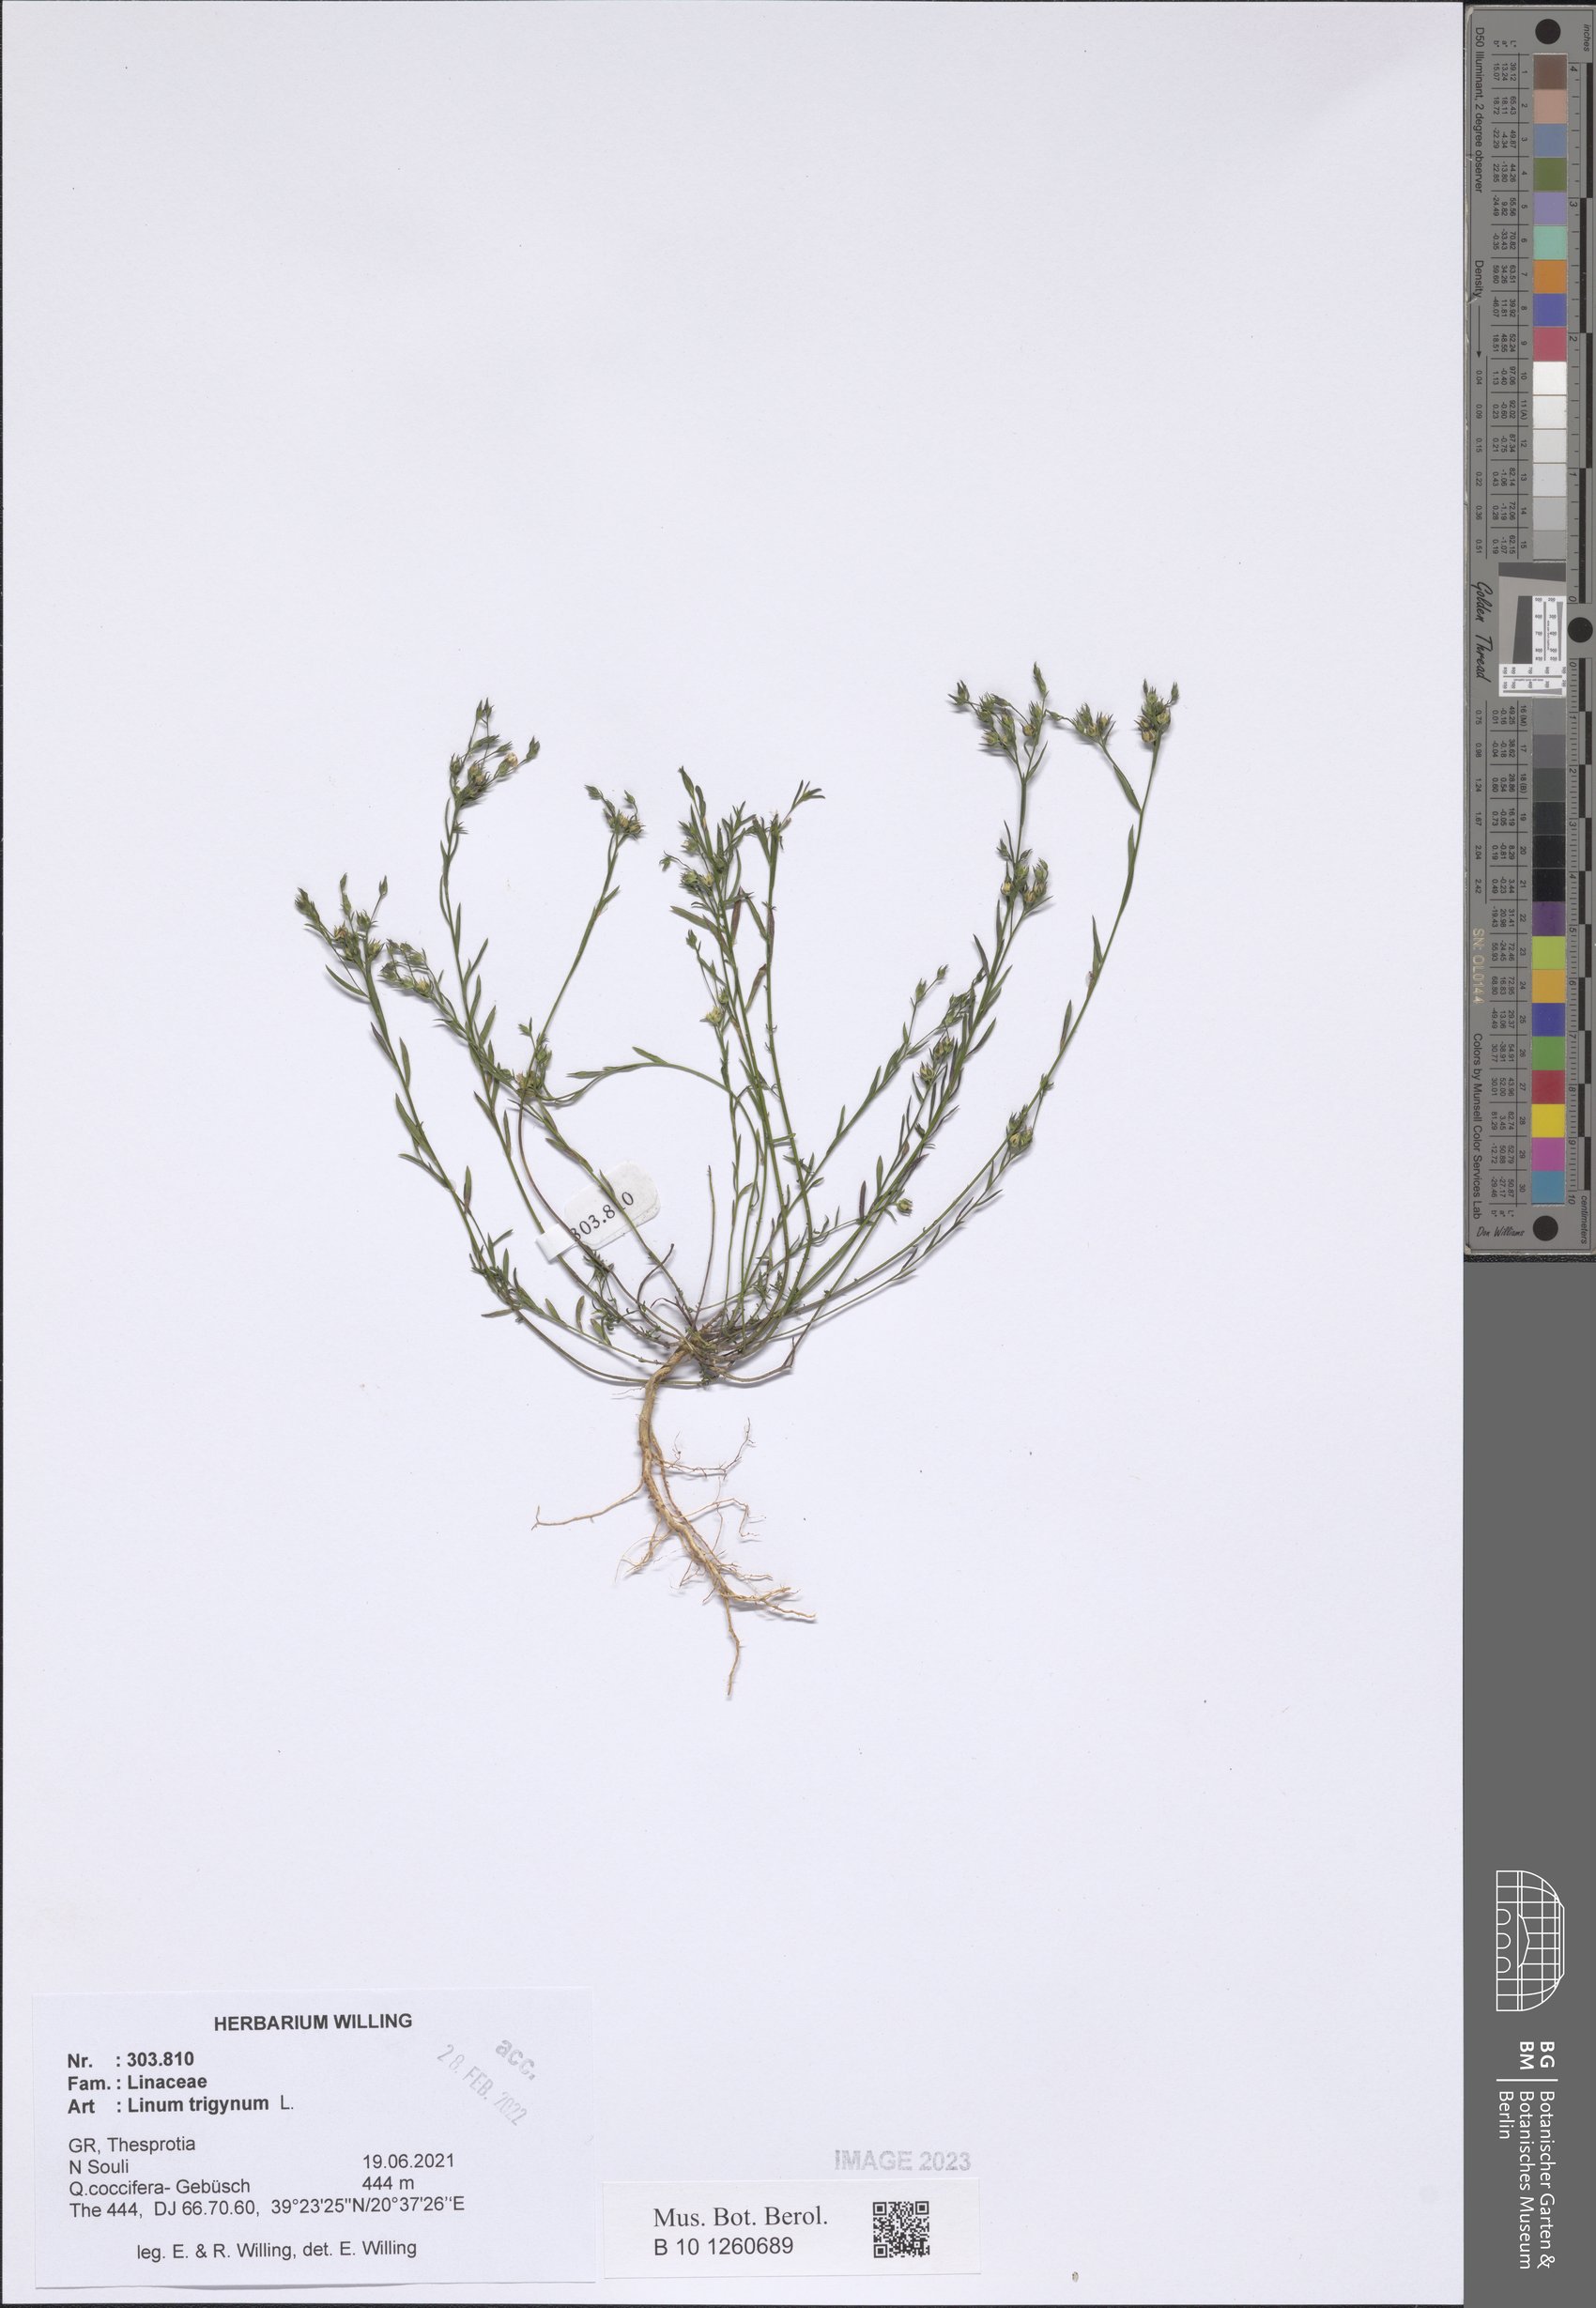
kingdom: Plantae
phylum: Tracheophyta
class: Magnoliopsida
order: Malpighiales
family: Linaceae
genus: Linum
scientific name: Linum trigynum
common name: French flax
